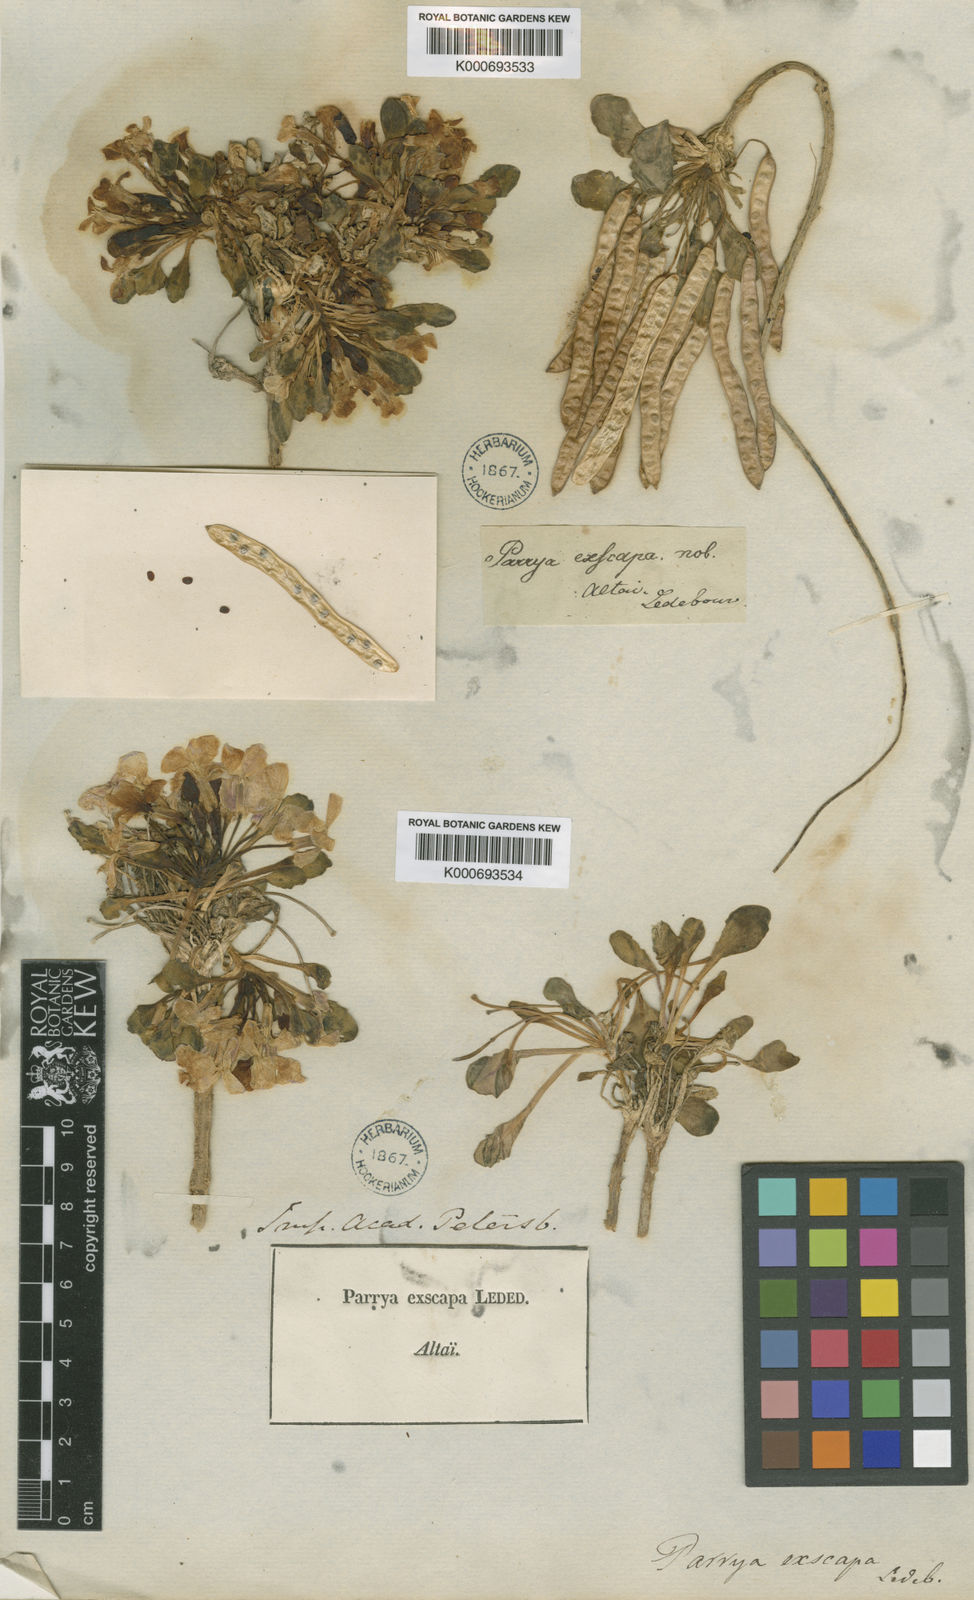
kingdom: Plantae
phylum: Tracheophyta
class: Magnoliopsida
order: Brassicales
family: Brassicaceae
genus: Parrya
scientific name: Parrya
